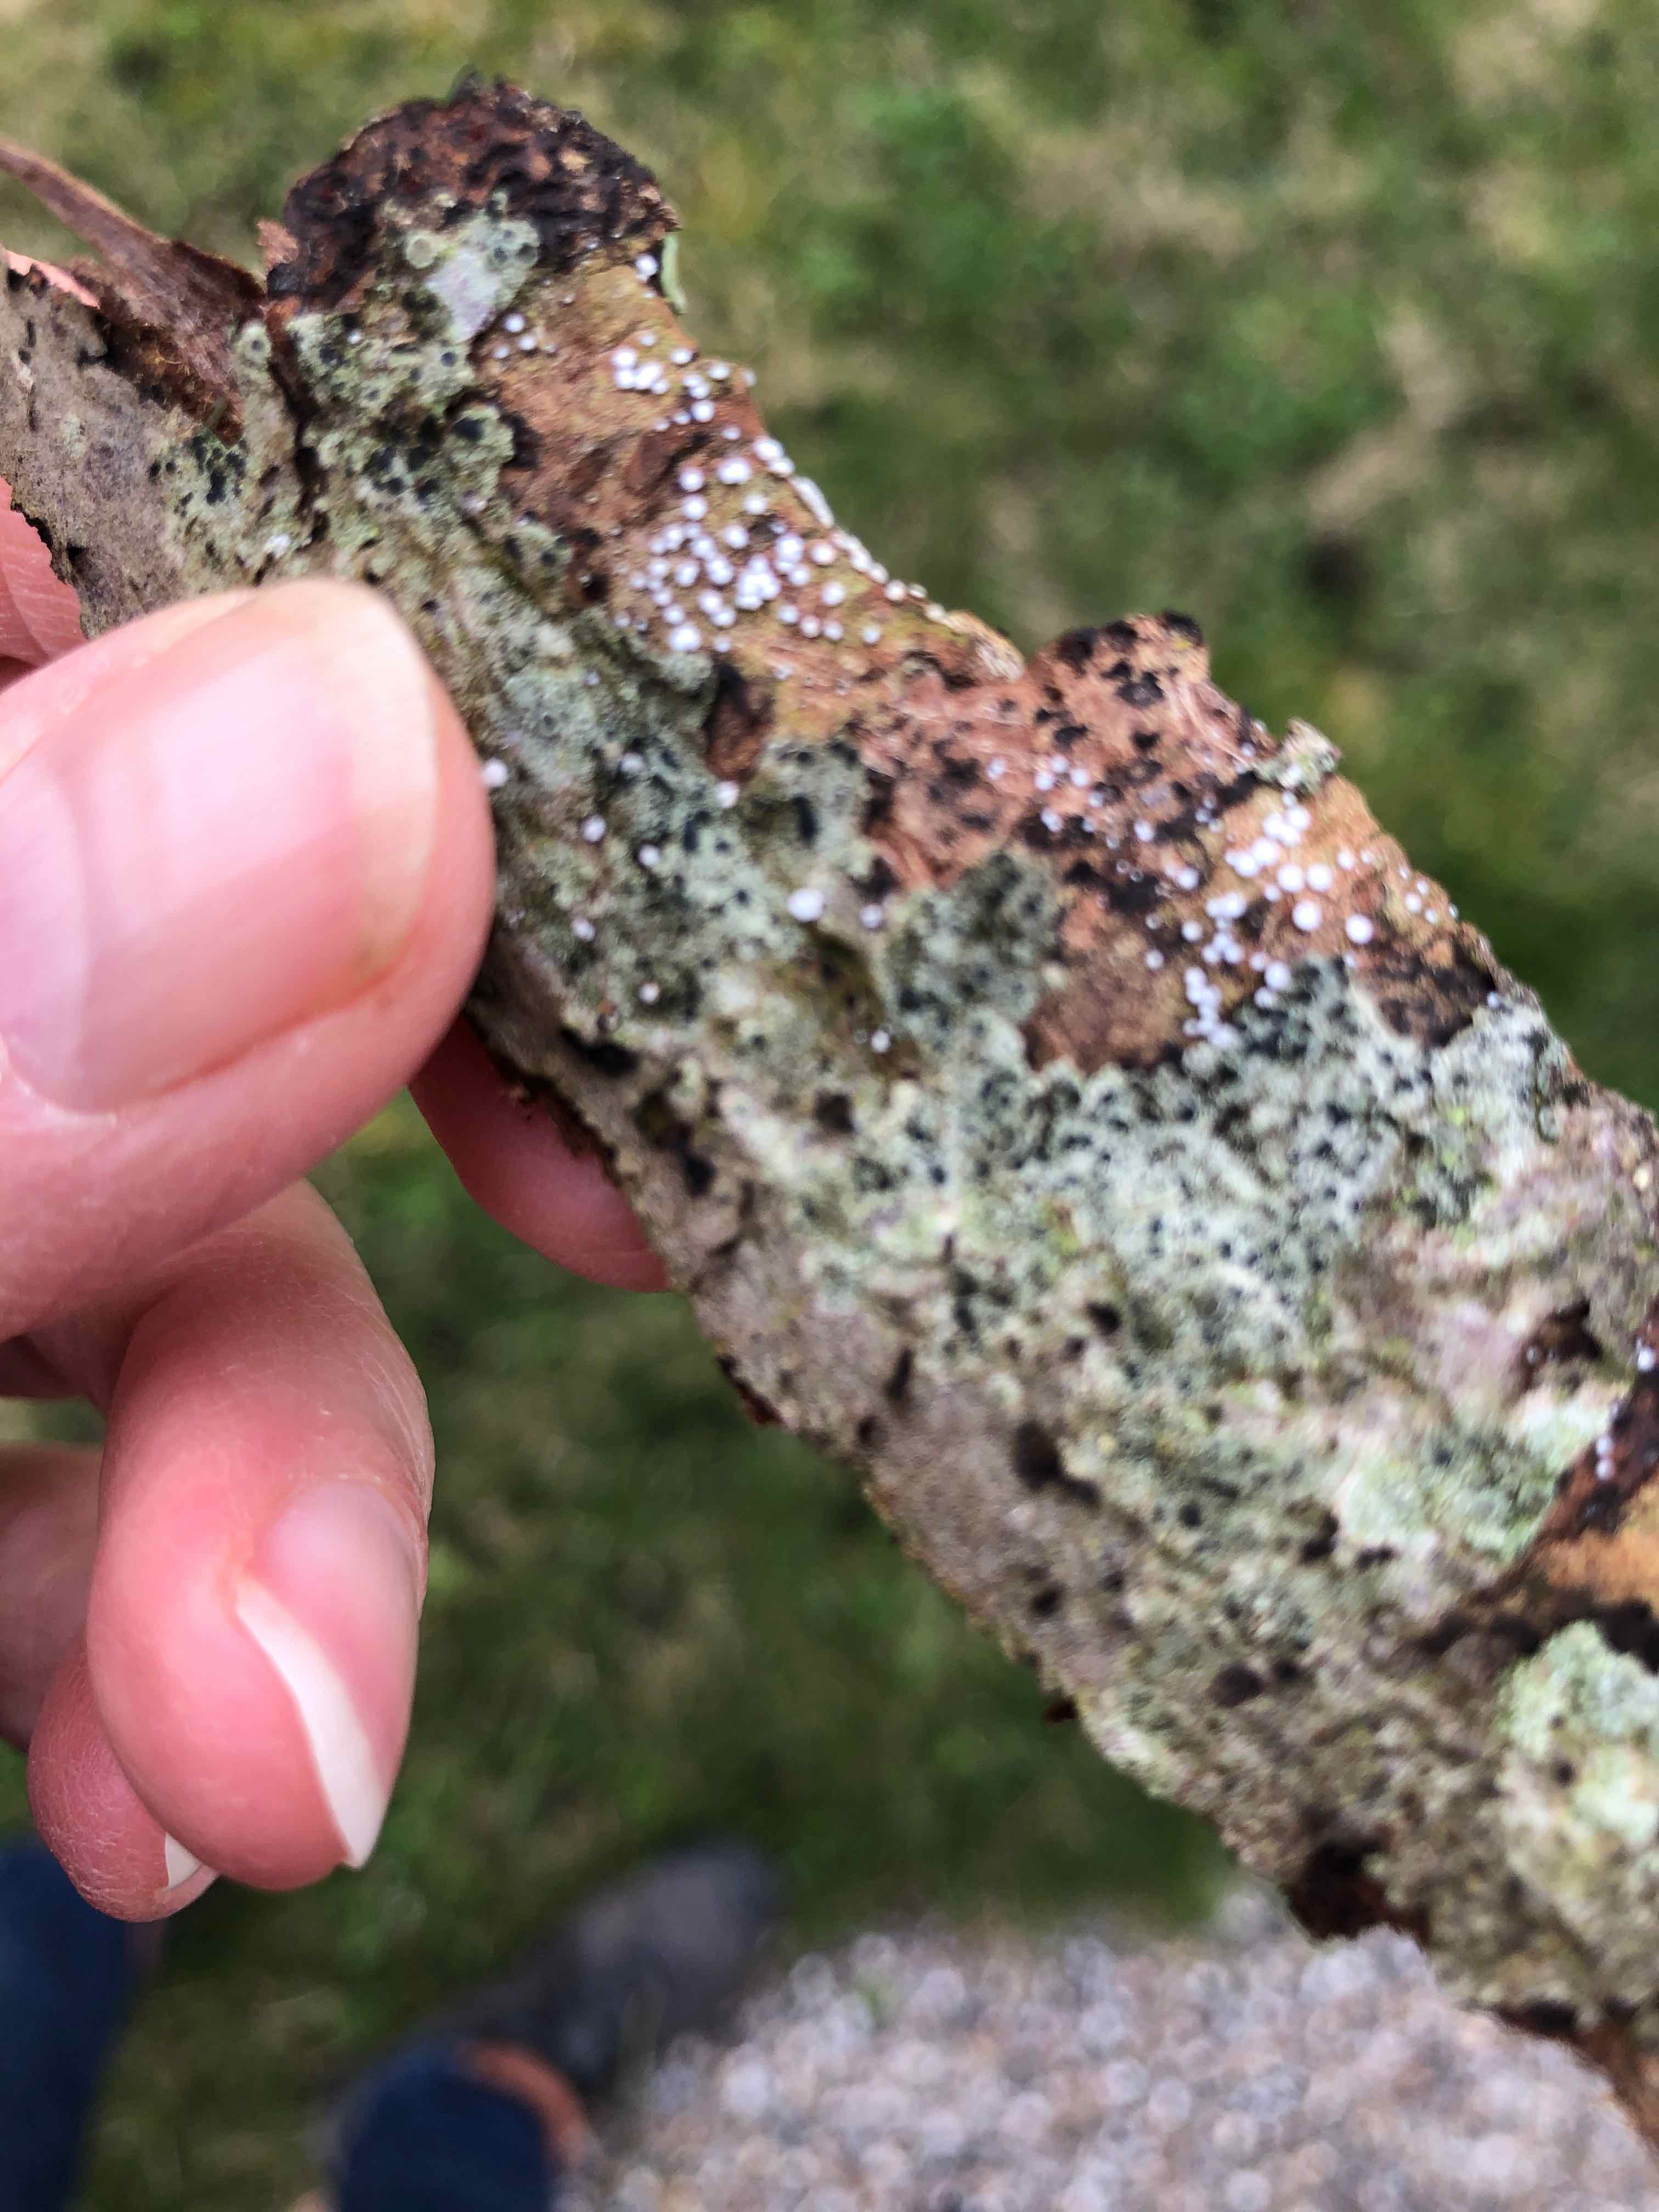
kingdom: Fungi
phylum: Basidiomycota
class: Agaricomycetes
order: Agaricales
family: Niaceae
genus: Lachnella
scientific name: Lachnella alboviolascens
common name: grå frynserede
